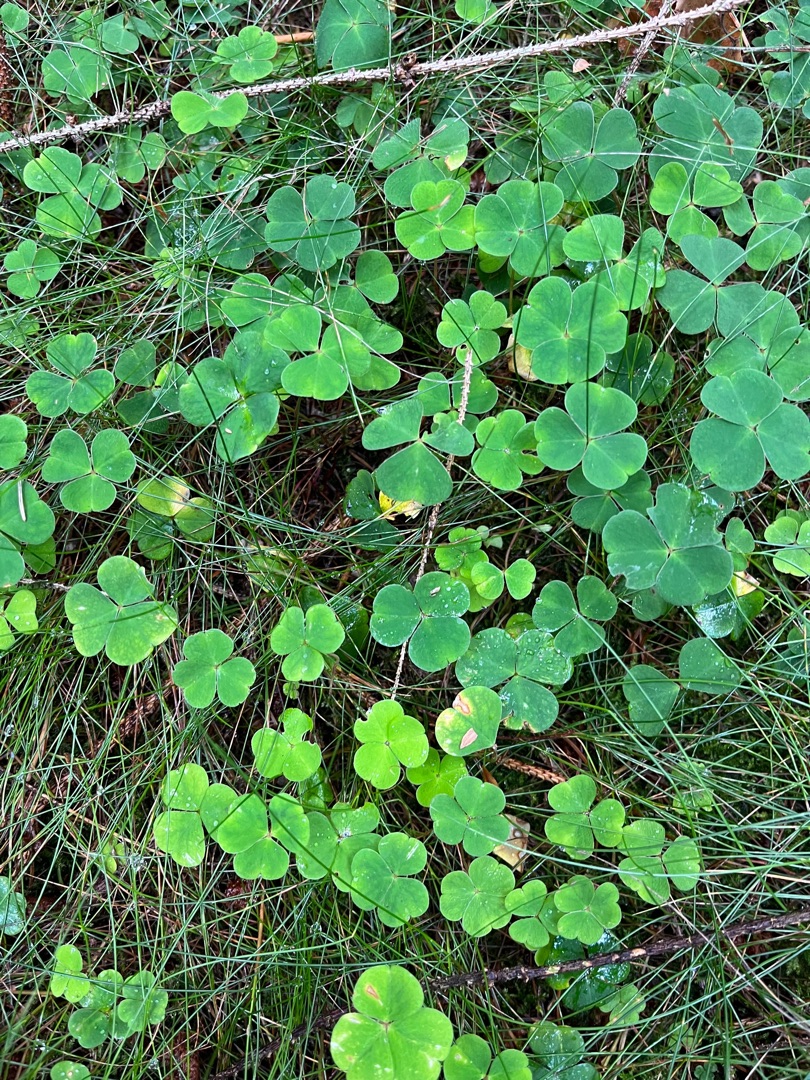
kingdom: Plantae
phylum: Tracheophyta
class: Magnoliopsida
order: Oxalidales
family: Oxalidaceae
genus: Oxalis
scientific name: Oxalis acetosella
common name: Skovsyre
